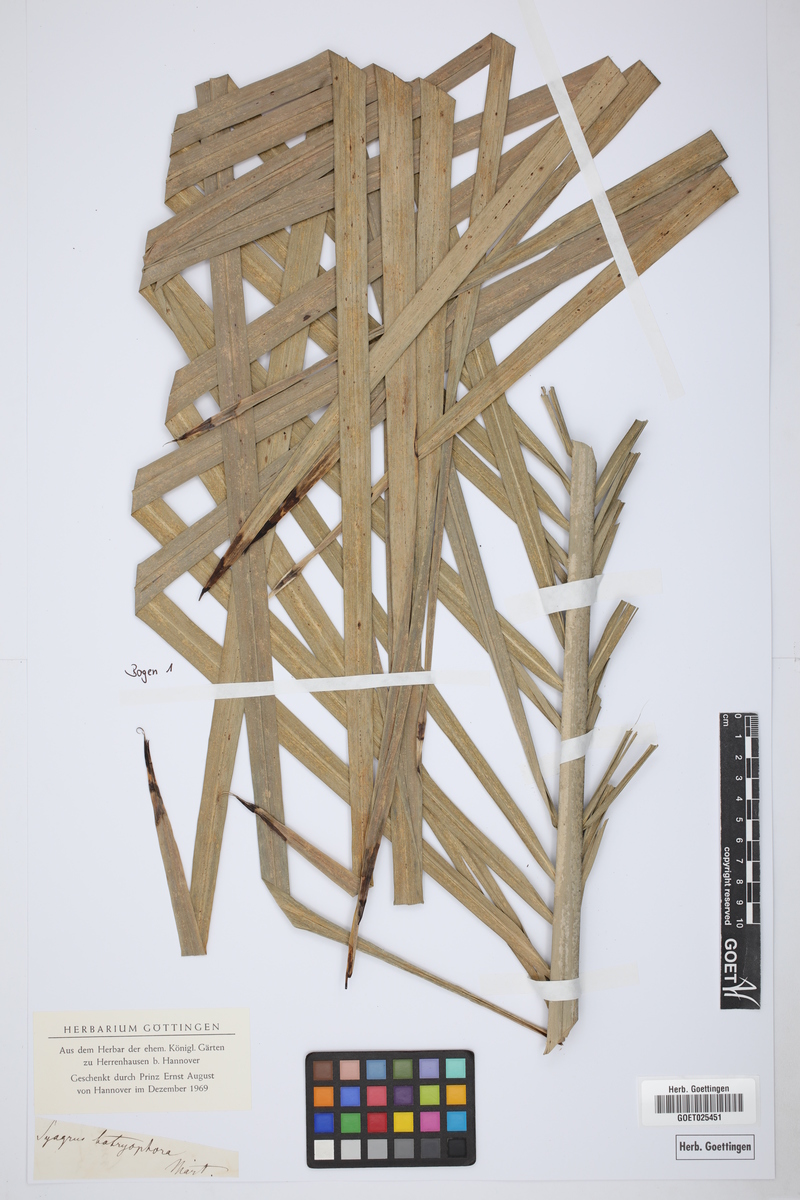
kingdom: Plantae
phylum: Tracheophyta
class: Liliopsida
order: Arecales
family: Arecaceae
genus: Syagrus
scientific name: Syagrus botryophora
